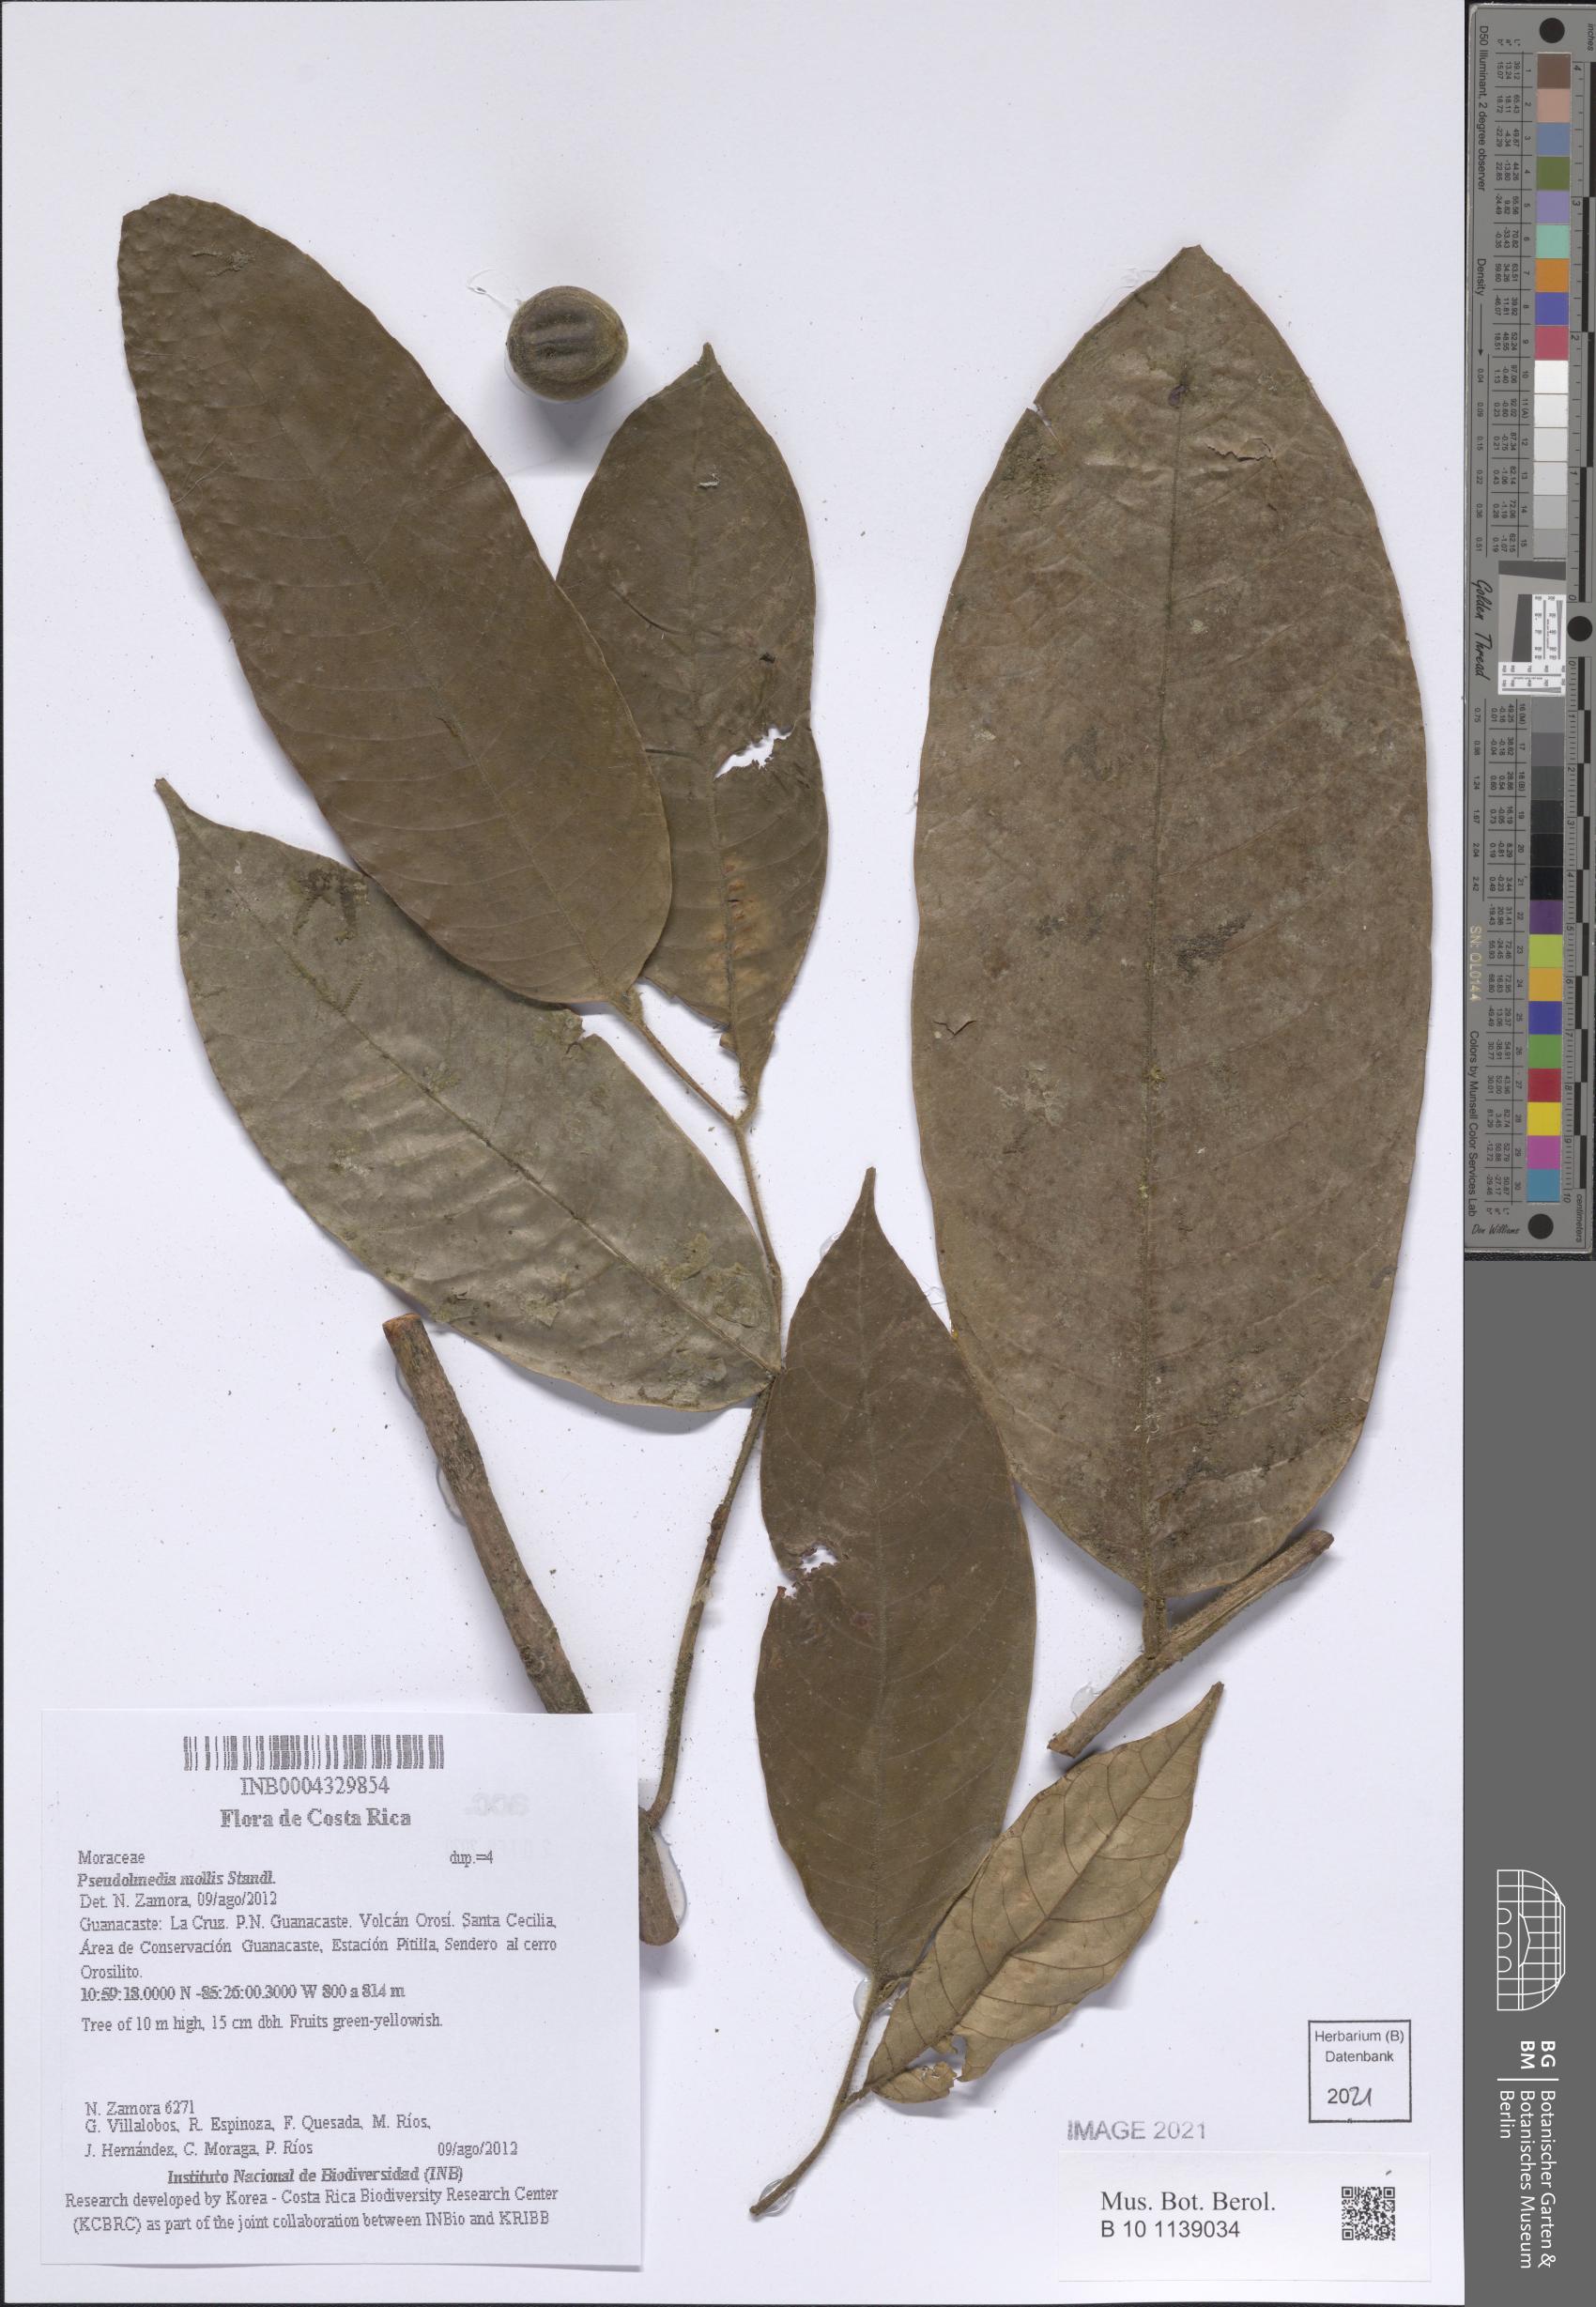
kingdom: Plantae
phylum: Tracheophyta
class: Magnoliopsida
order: Rosales
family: Moraceae
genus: Pseudolmedia
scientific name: Pseudolmedia glabrata
